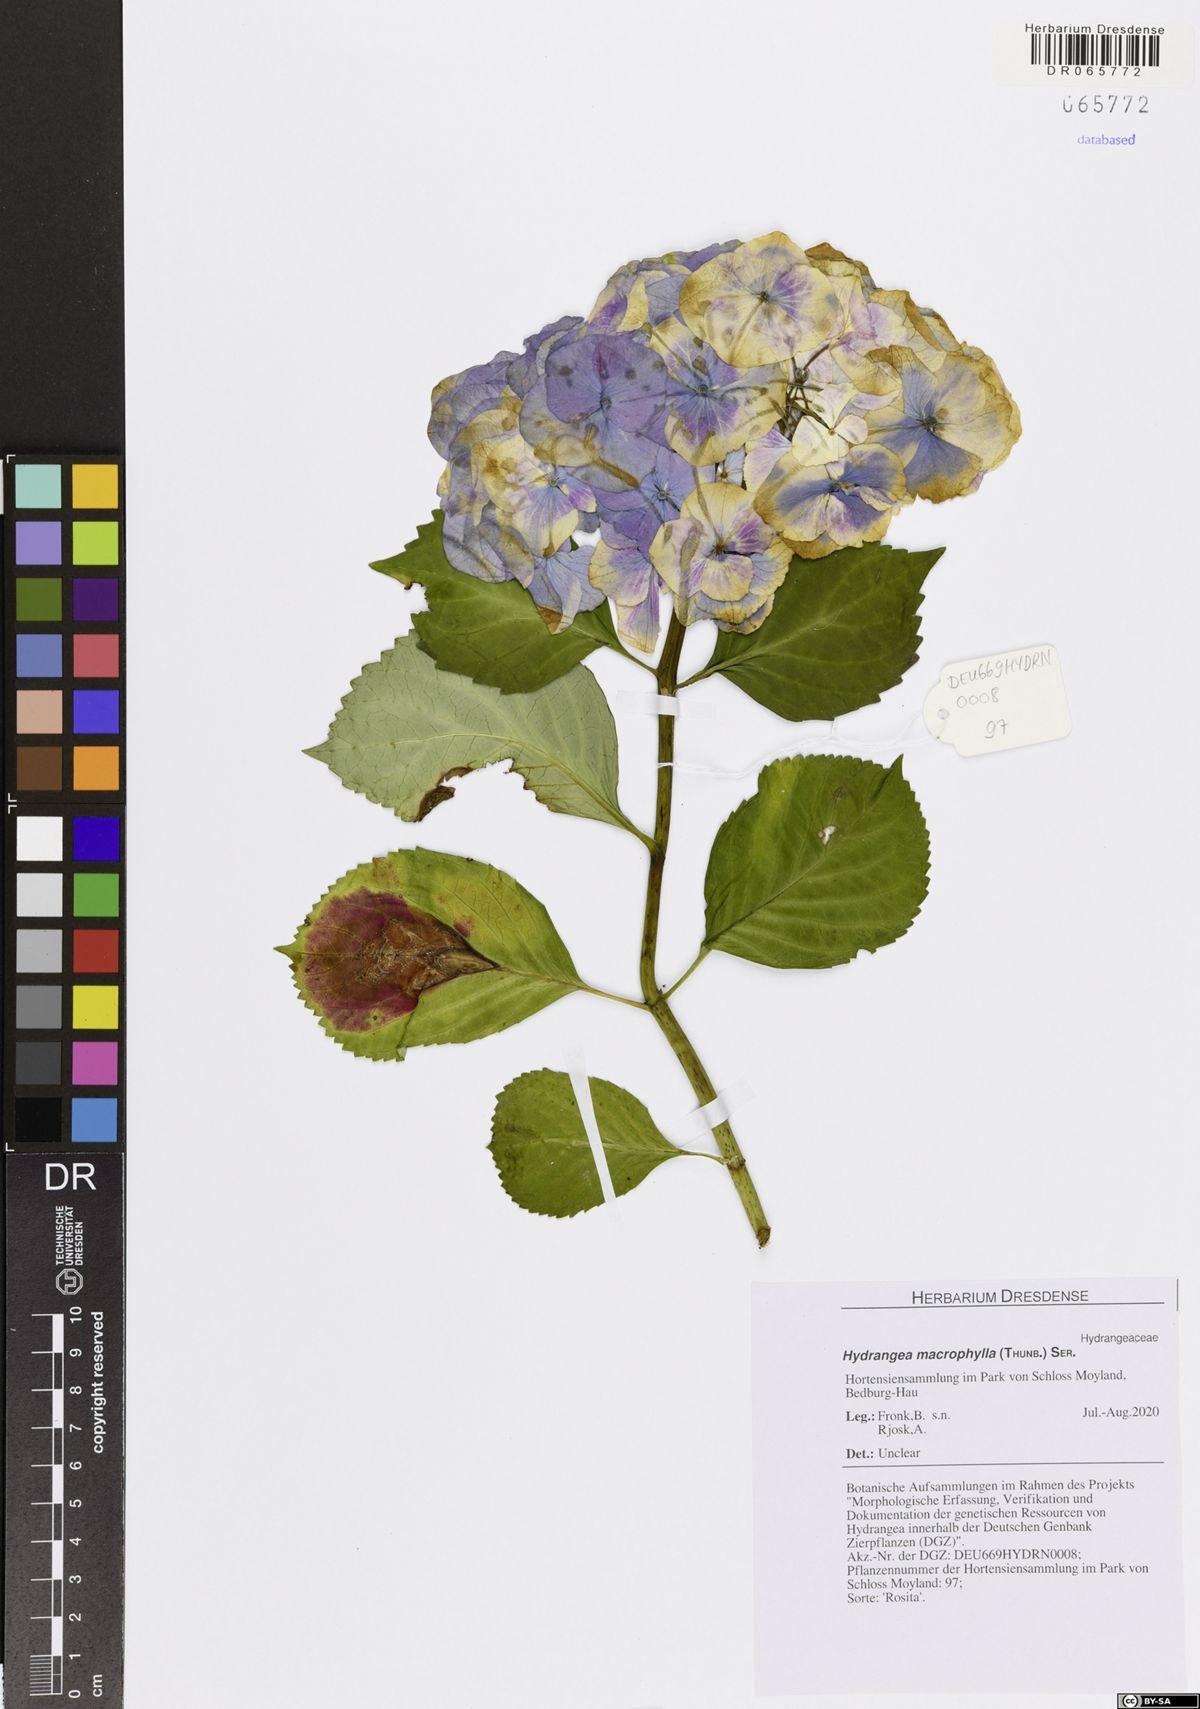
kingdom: Plantae
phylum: Tracheophyta
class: Magnoliopsida
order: Cornales
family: Hydrangeaceae
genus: Hydrangea
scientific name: Hydrangea macrophylla
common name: Hydrangea
